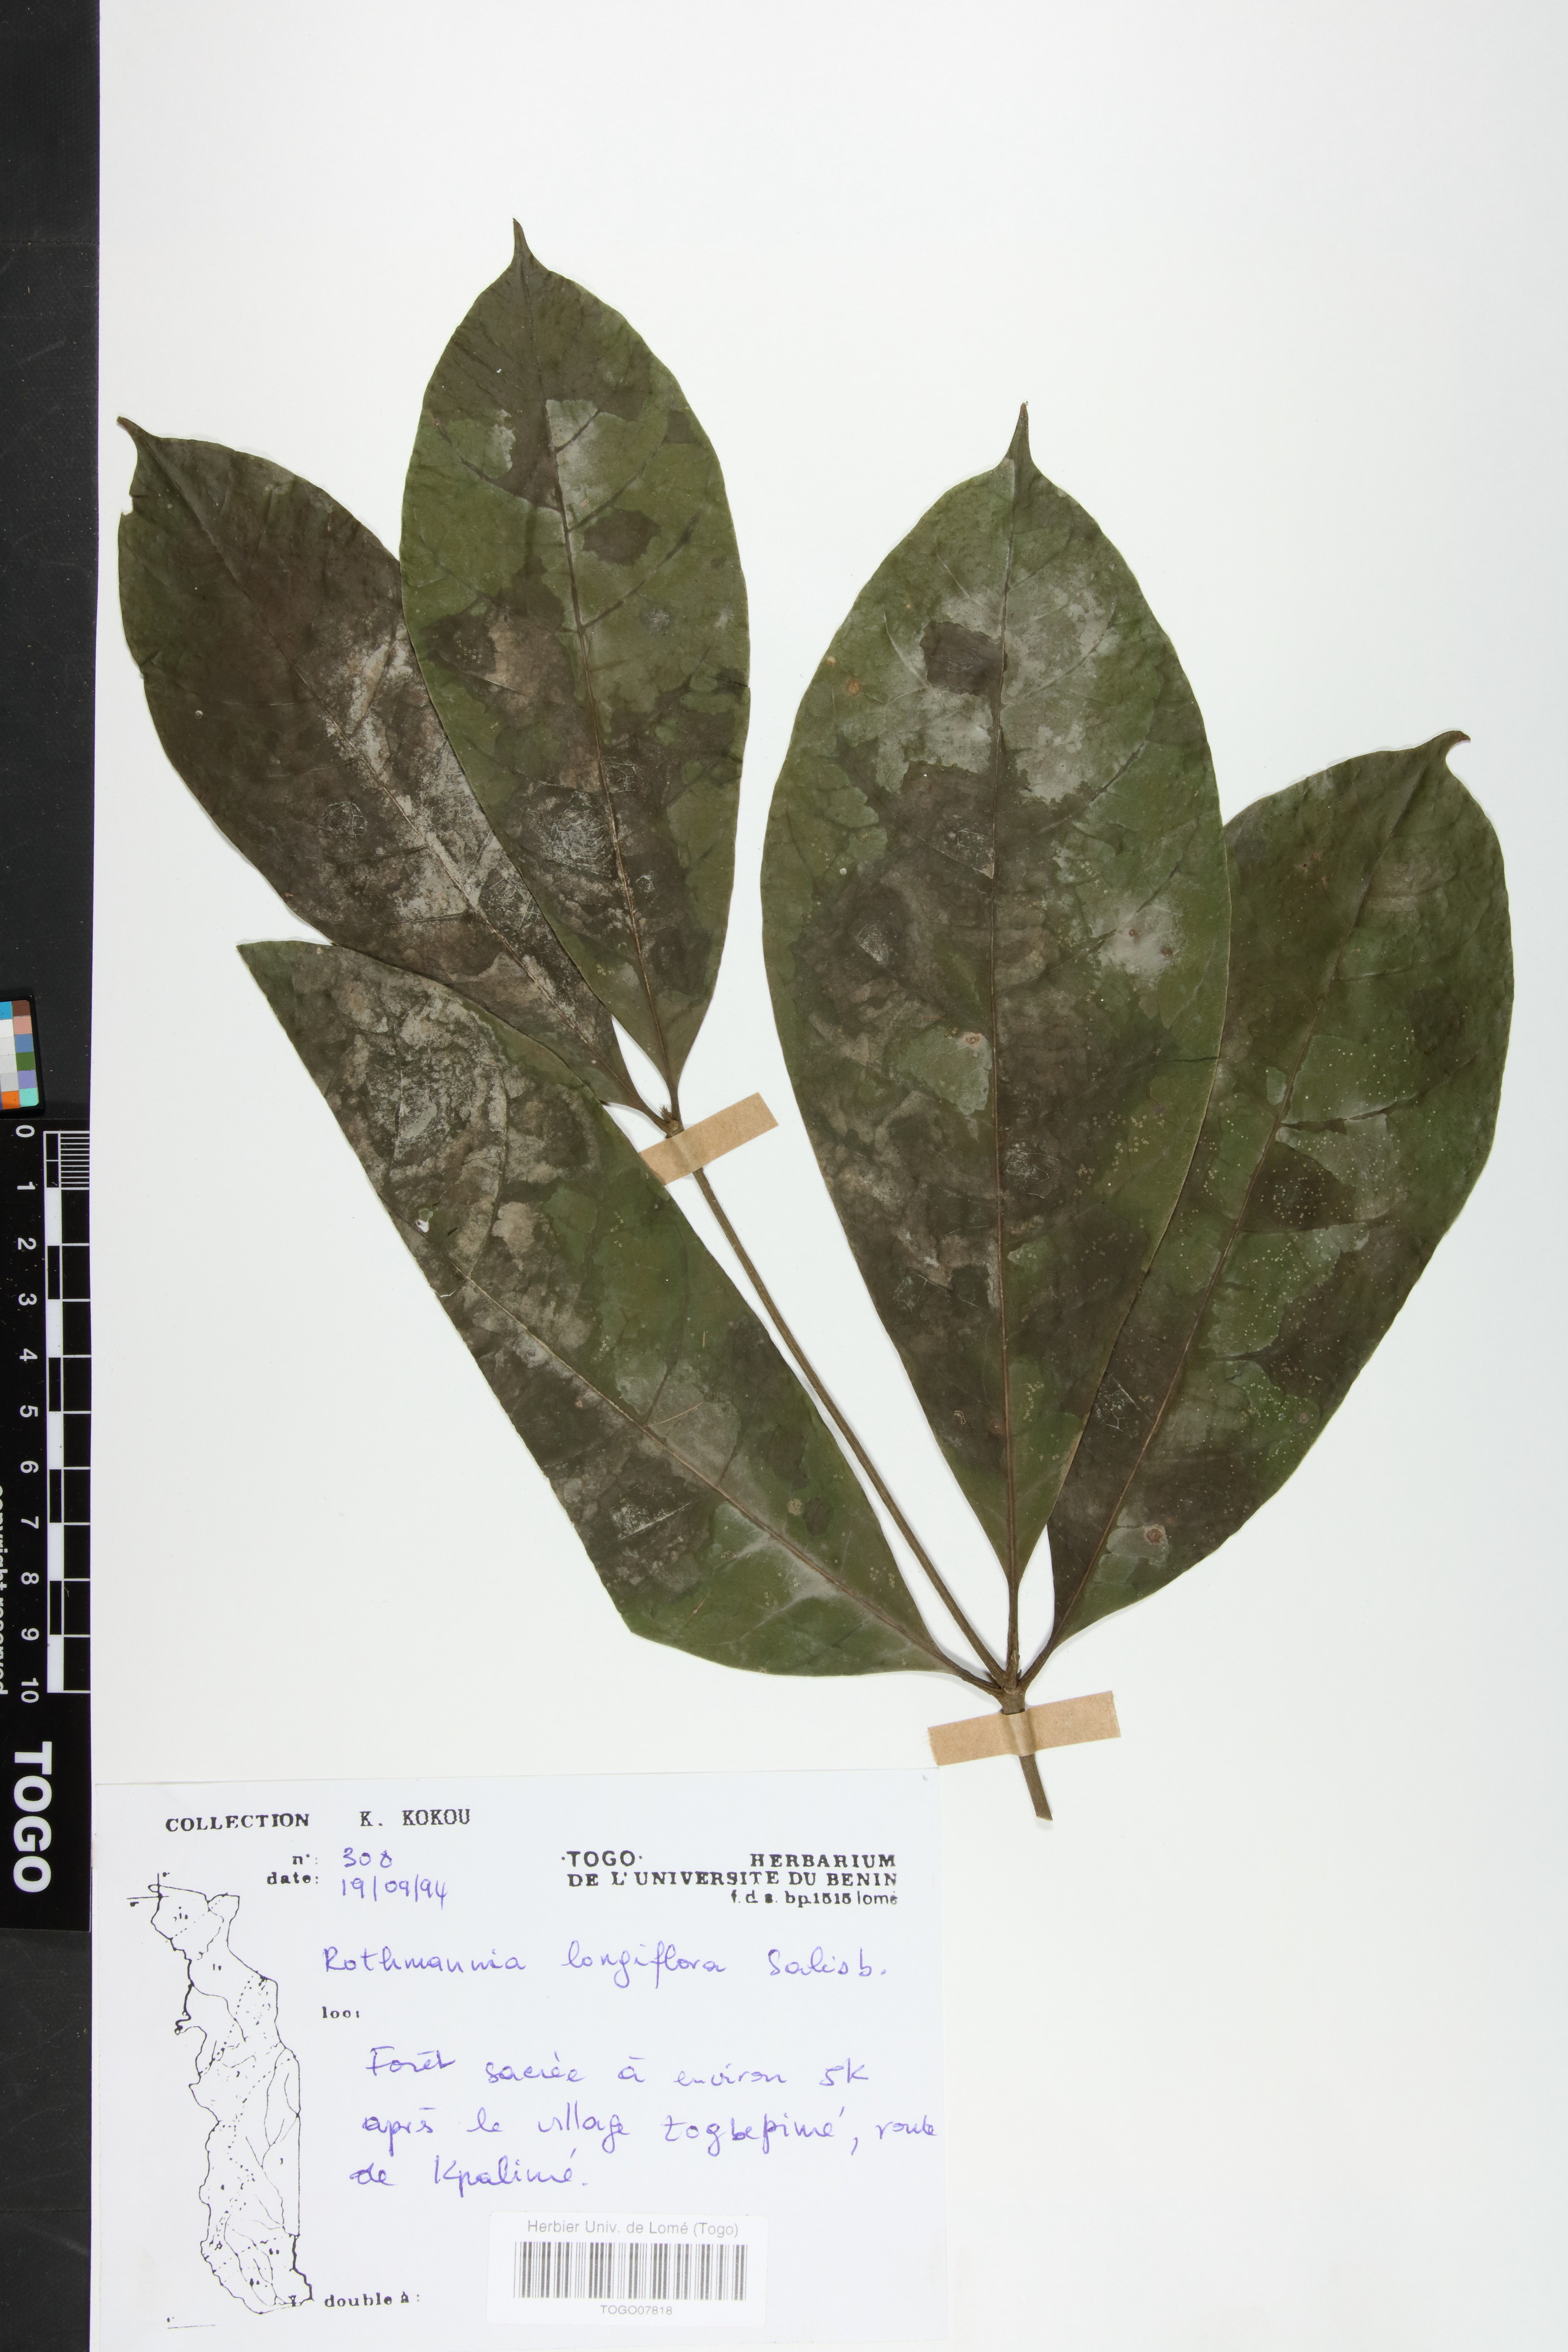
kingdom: Plantae
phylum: Tracheophyta
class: Magnoliopsida
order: Gentianales
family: Rubiaceae
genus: Rothmannia
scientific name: Rothmannia longiflora
